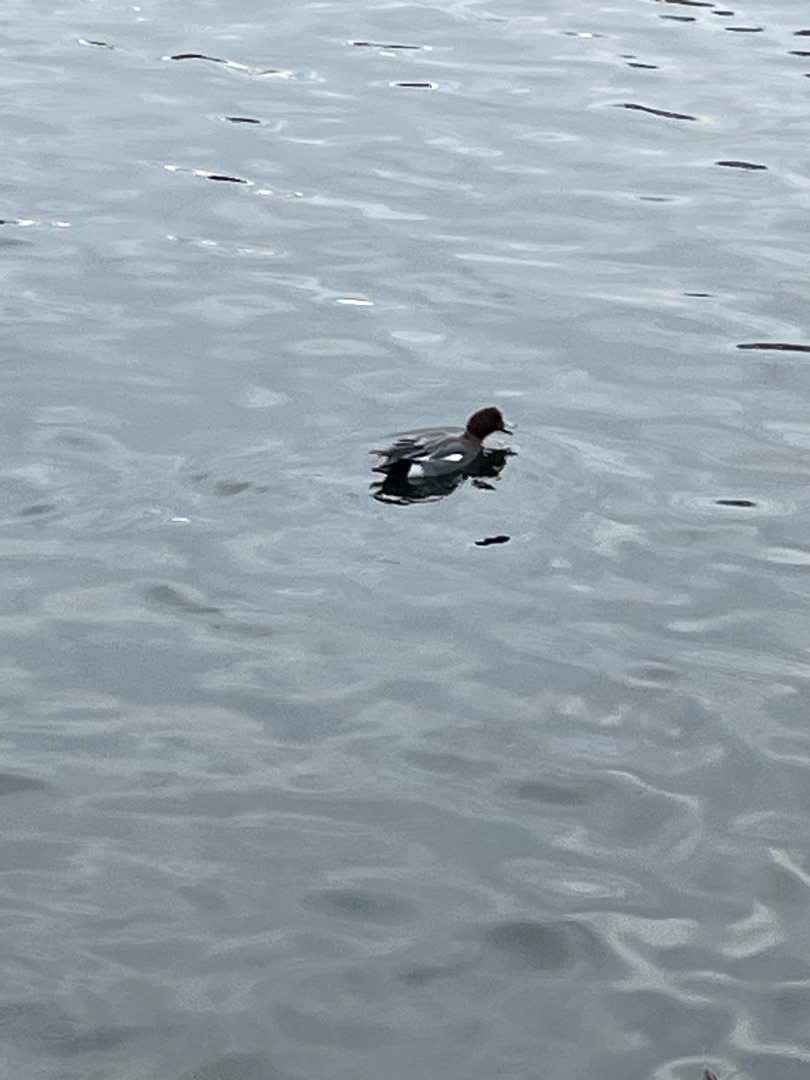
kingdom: Animalia
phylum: Chordata
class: Aves
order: Anseriformes
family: Anatidae
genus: Mareca
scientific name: Mareca penelope
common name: Pibeand
